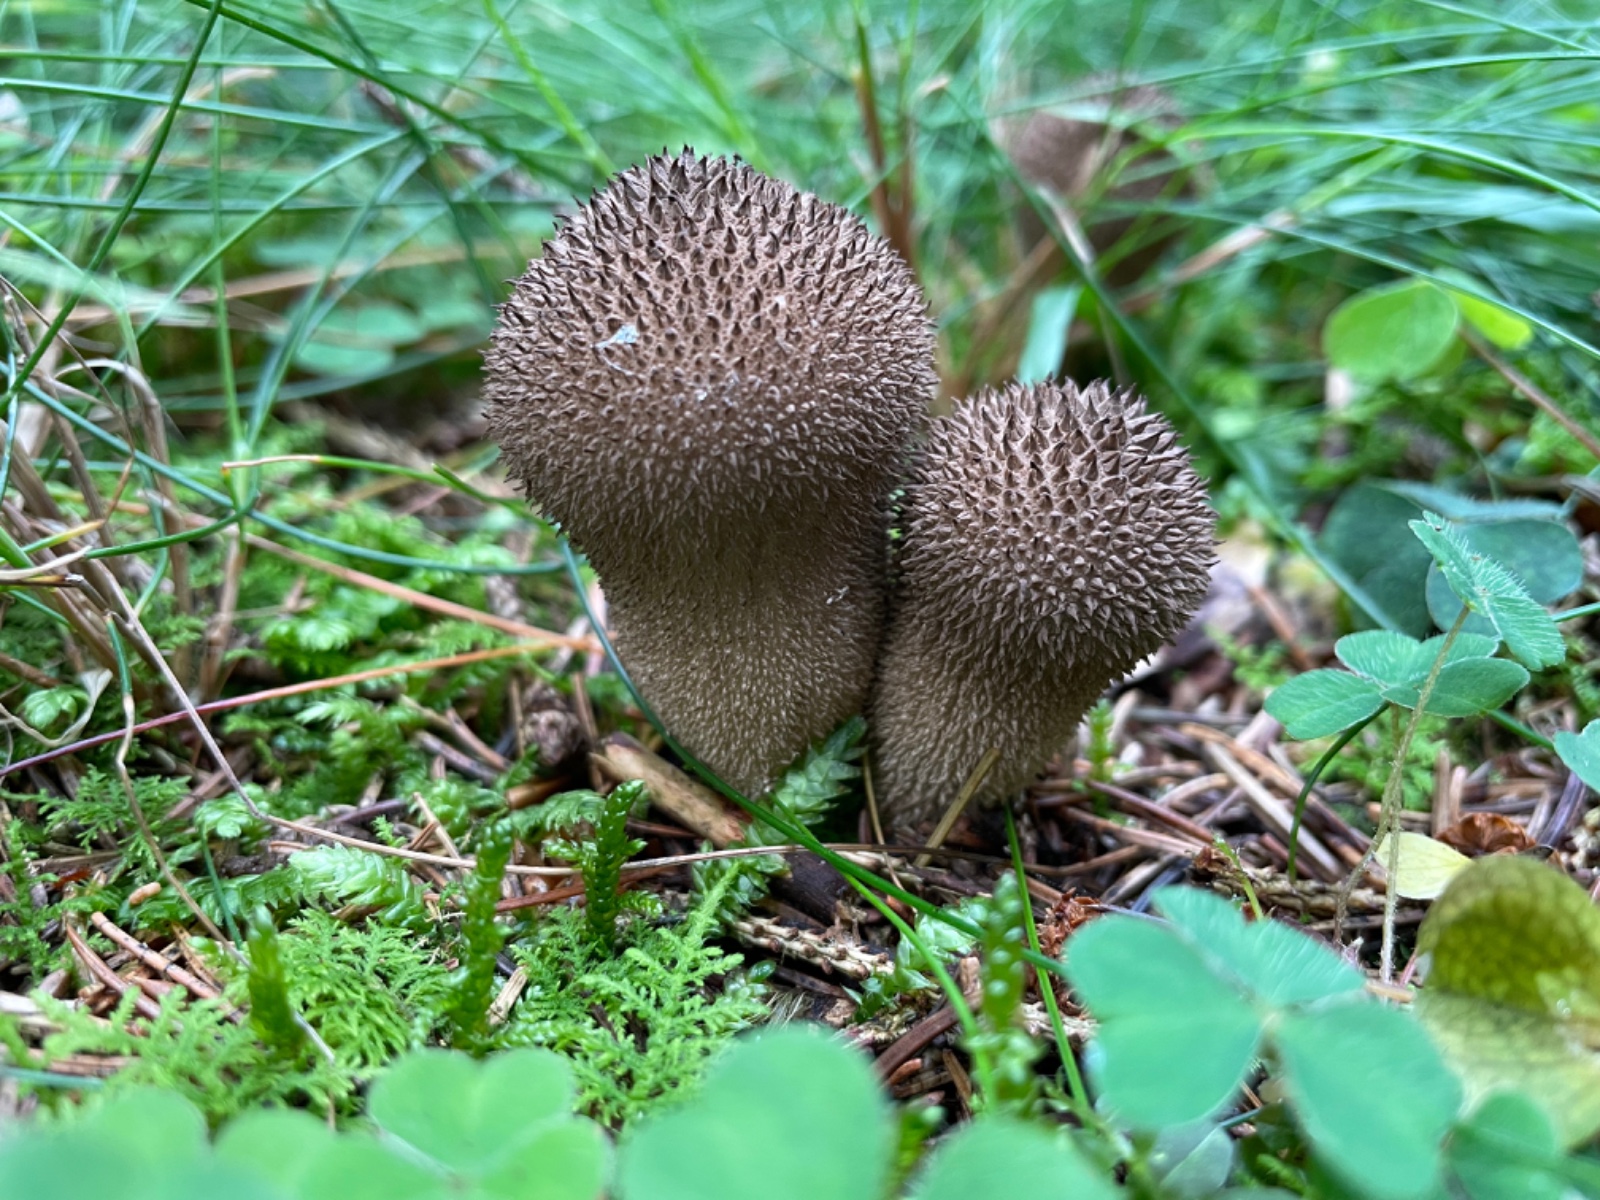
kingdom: Fungi
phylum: Basidiomycota
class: Agaricomycetes
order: Agaricales
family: Lycoperdaceae
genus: Lycoperdon
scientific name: Lycoperdon nigrescens
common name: sortagtig støvbold
